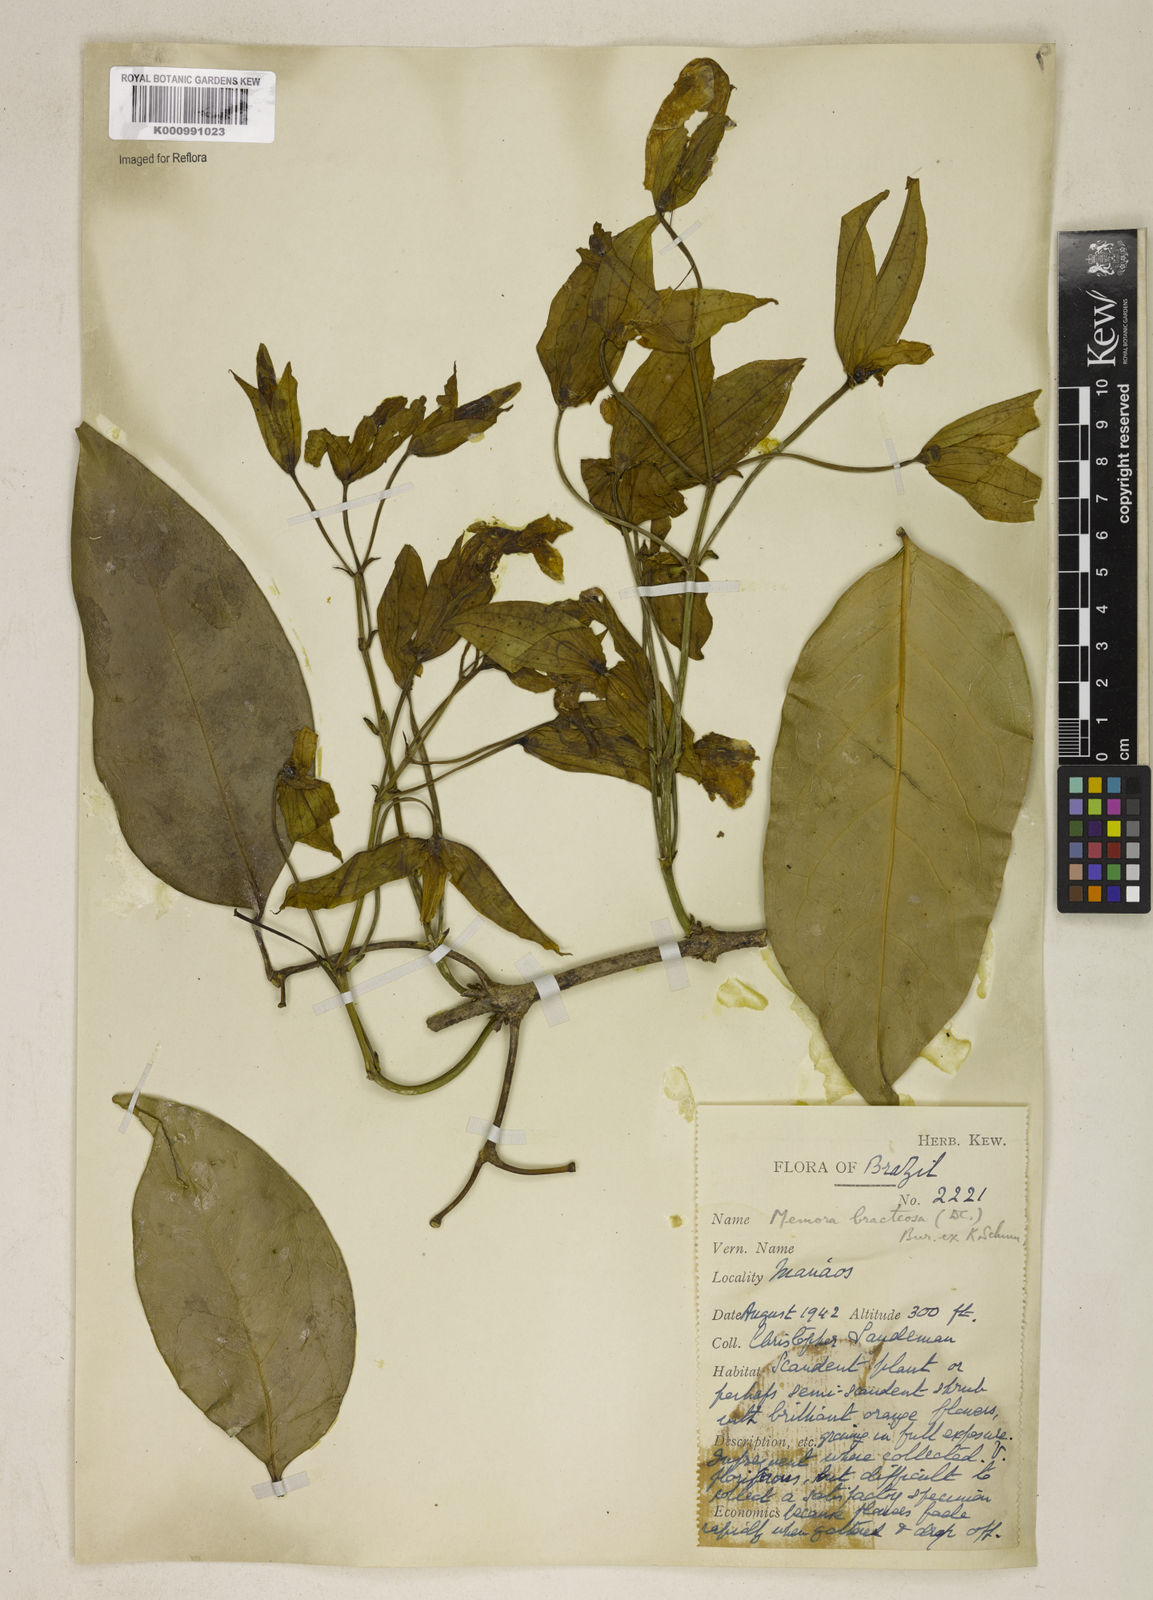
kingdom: Plantae
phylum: Tracheophyta
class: Magnoliopsida
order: Lamiales
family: Bignoniaceae
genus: Adenocalymma
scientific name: Adenocalymma
